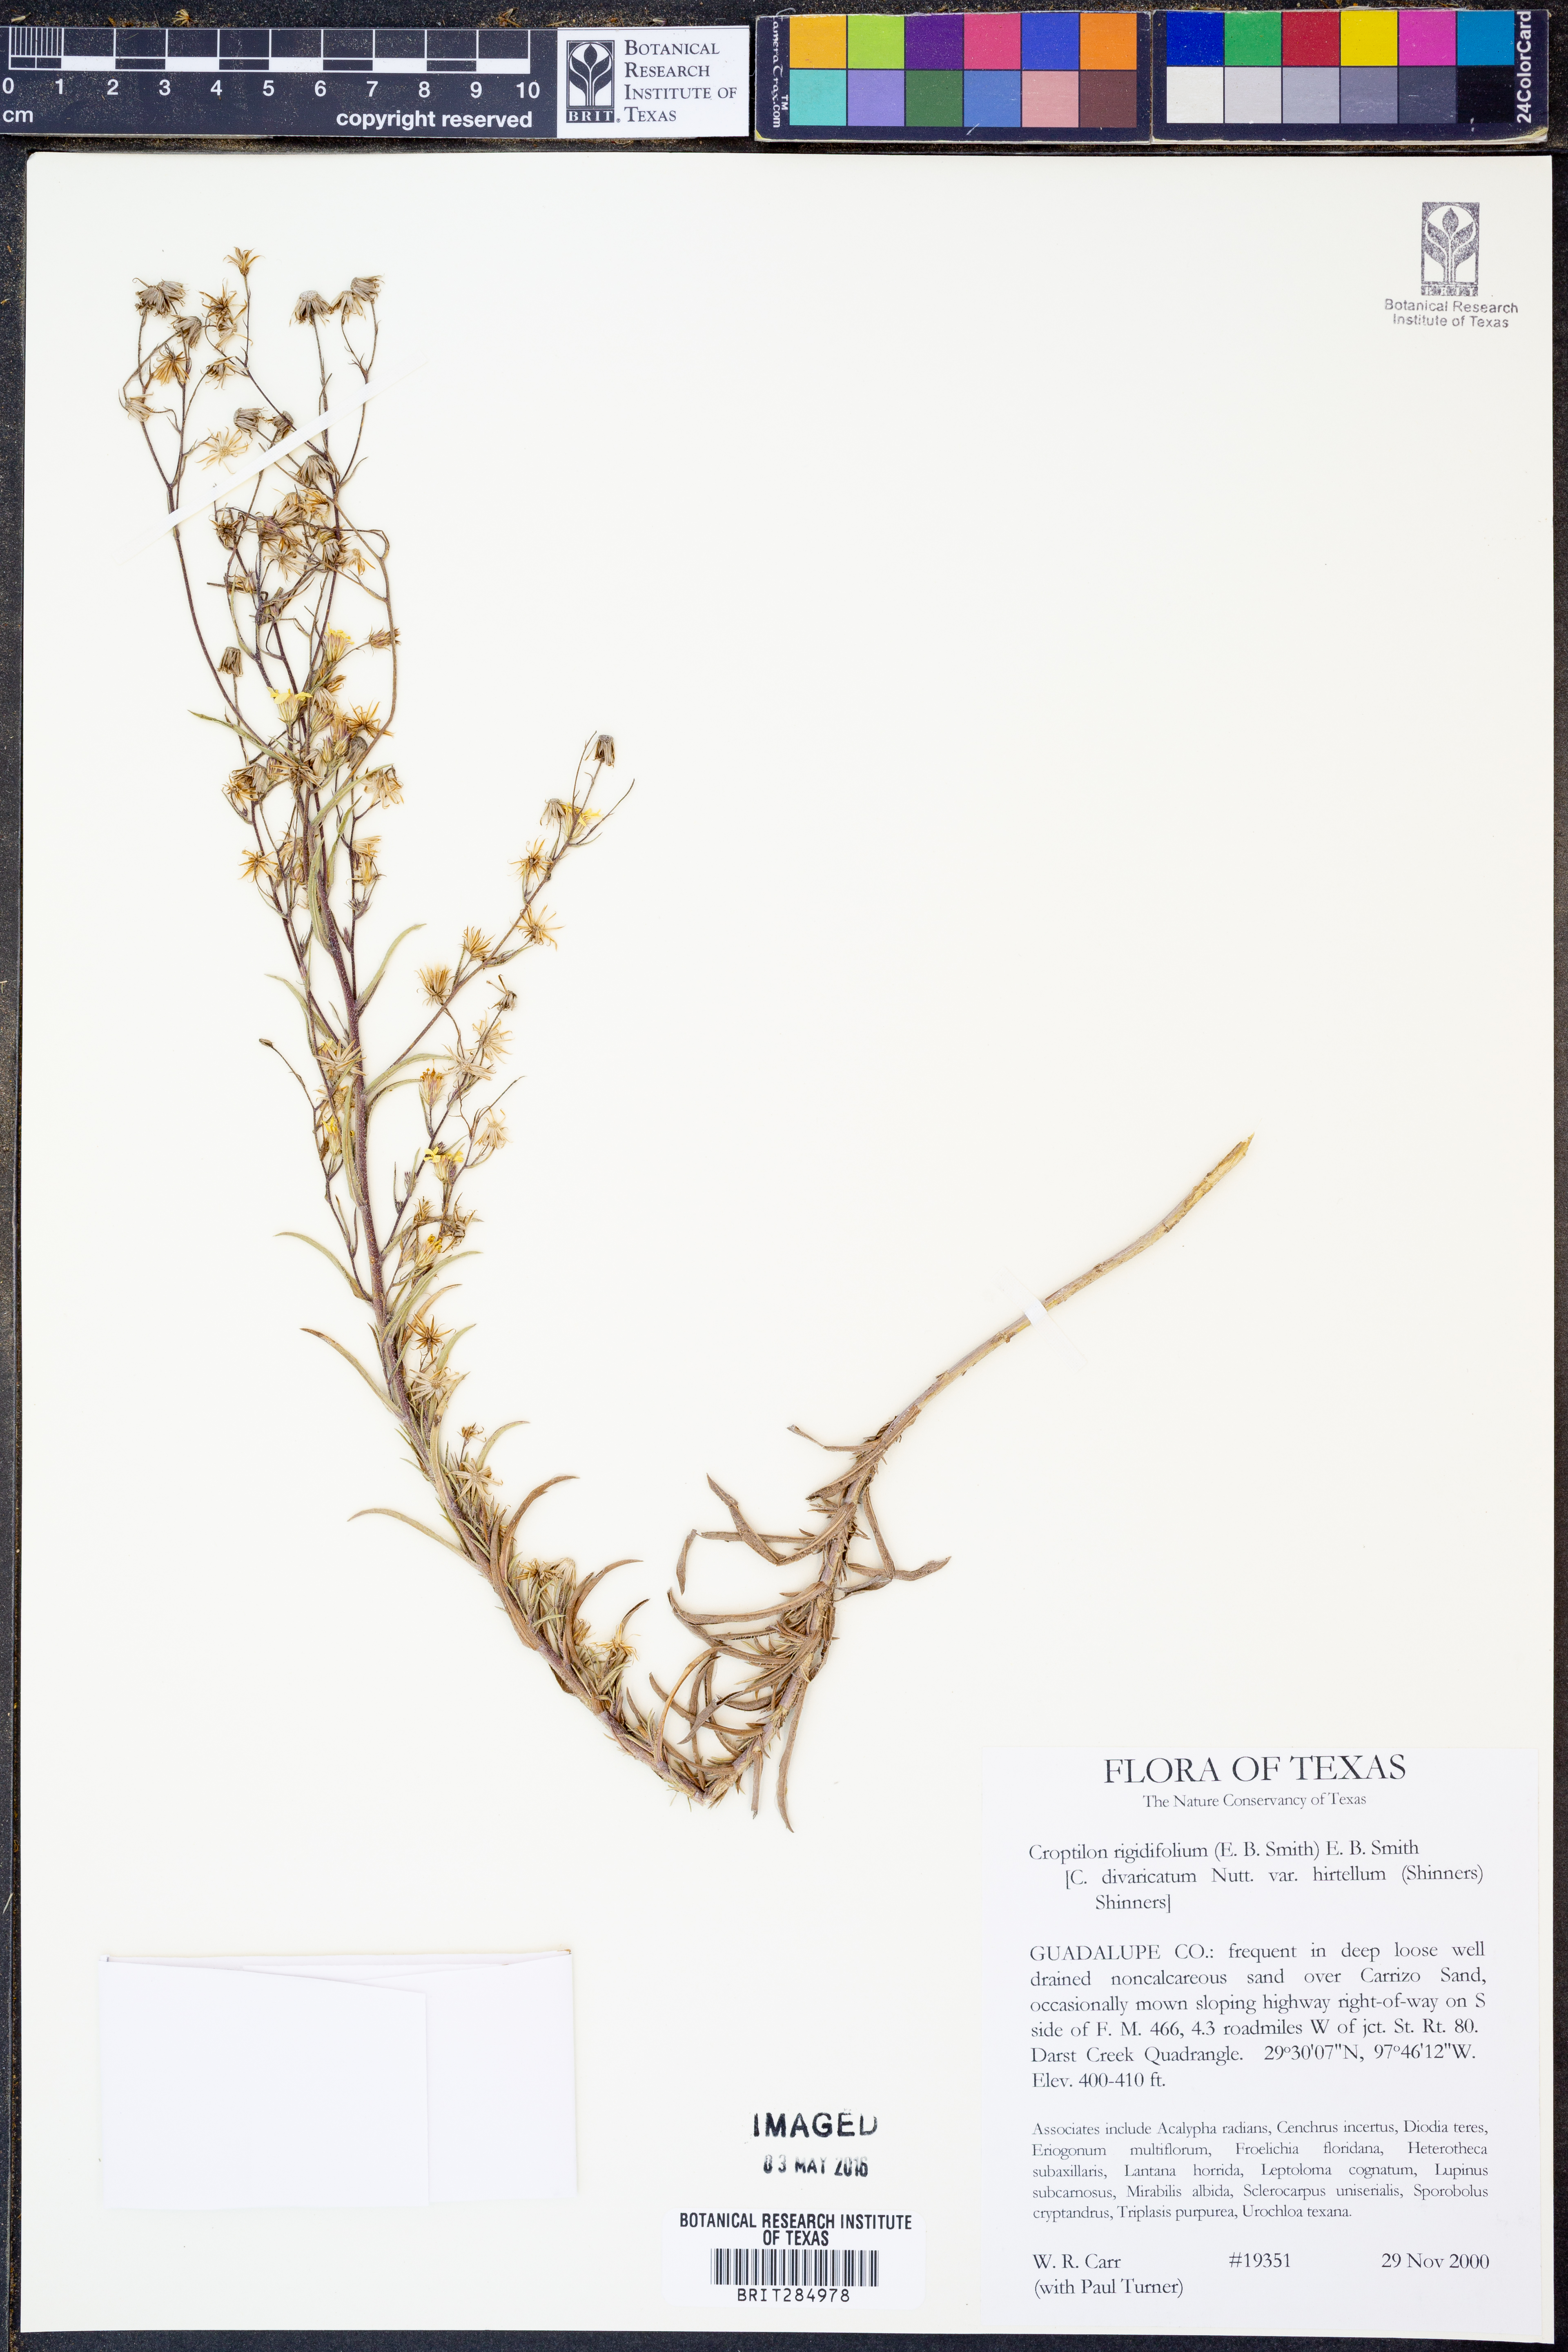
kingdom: Plantae
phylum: Tracheophyta
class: Magnoliopsida
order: Asterales
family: Asteraceae
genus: Croptilon
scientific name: Croptilon rigidifolium
